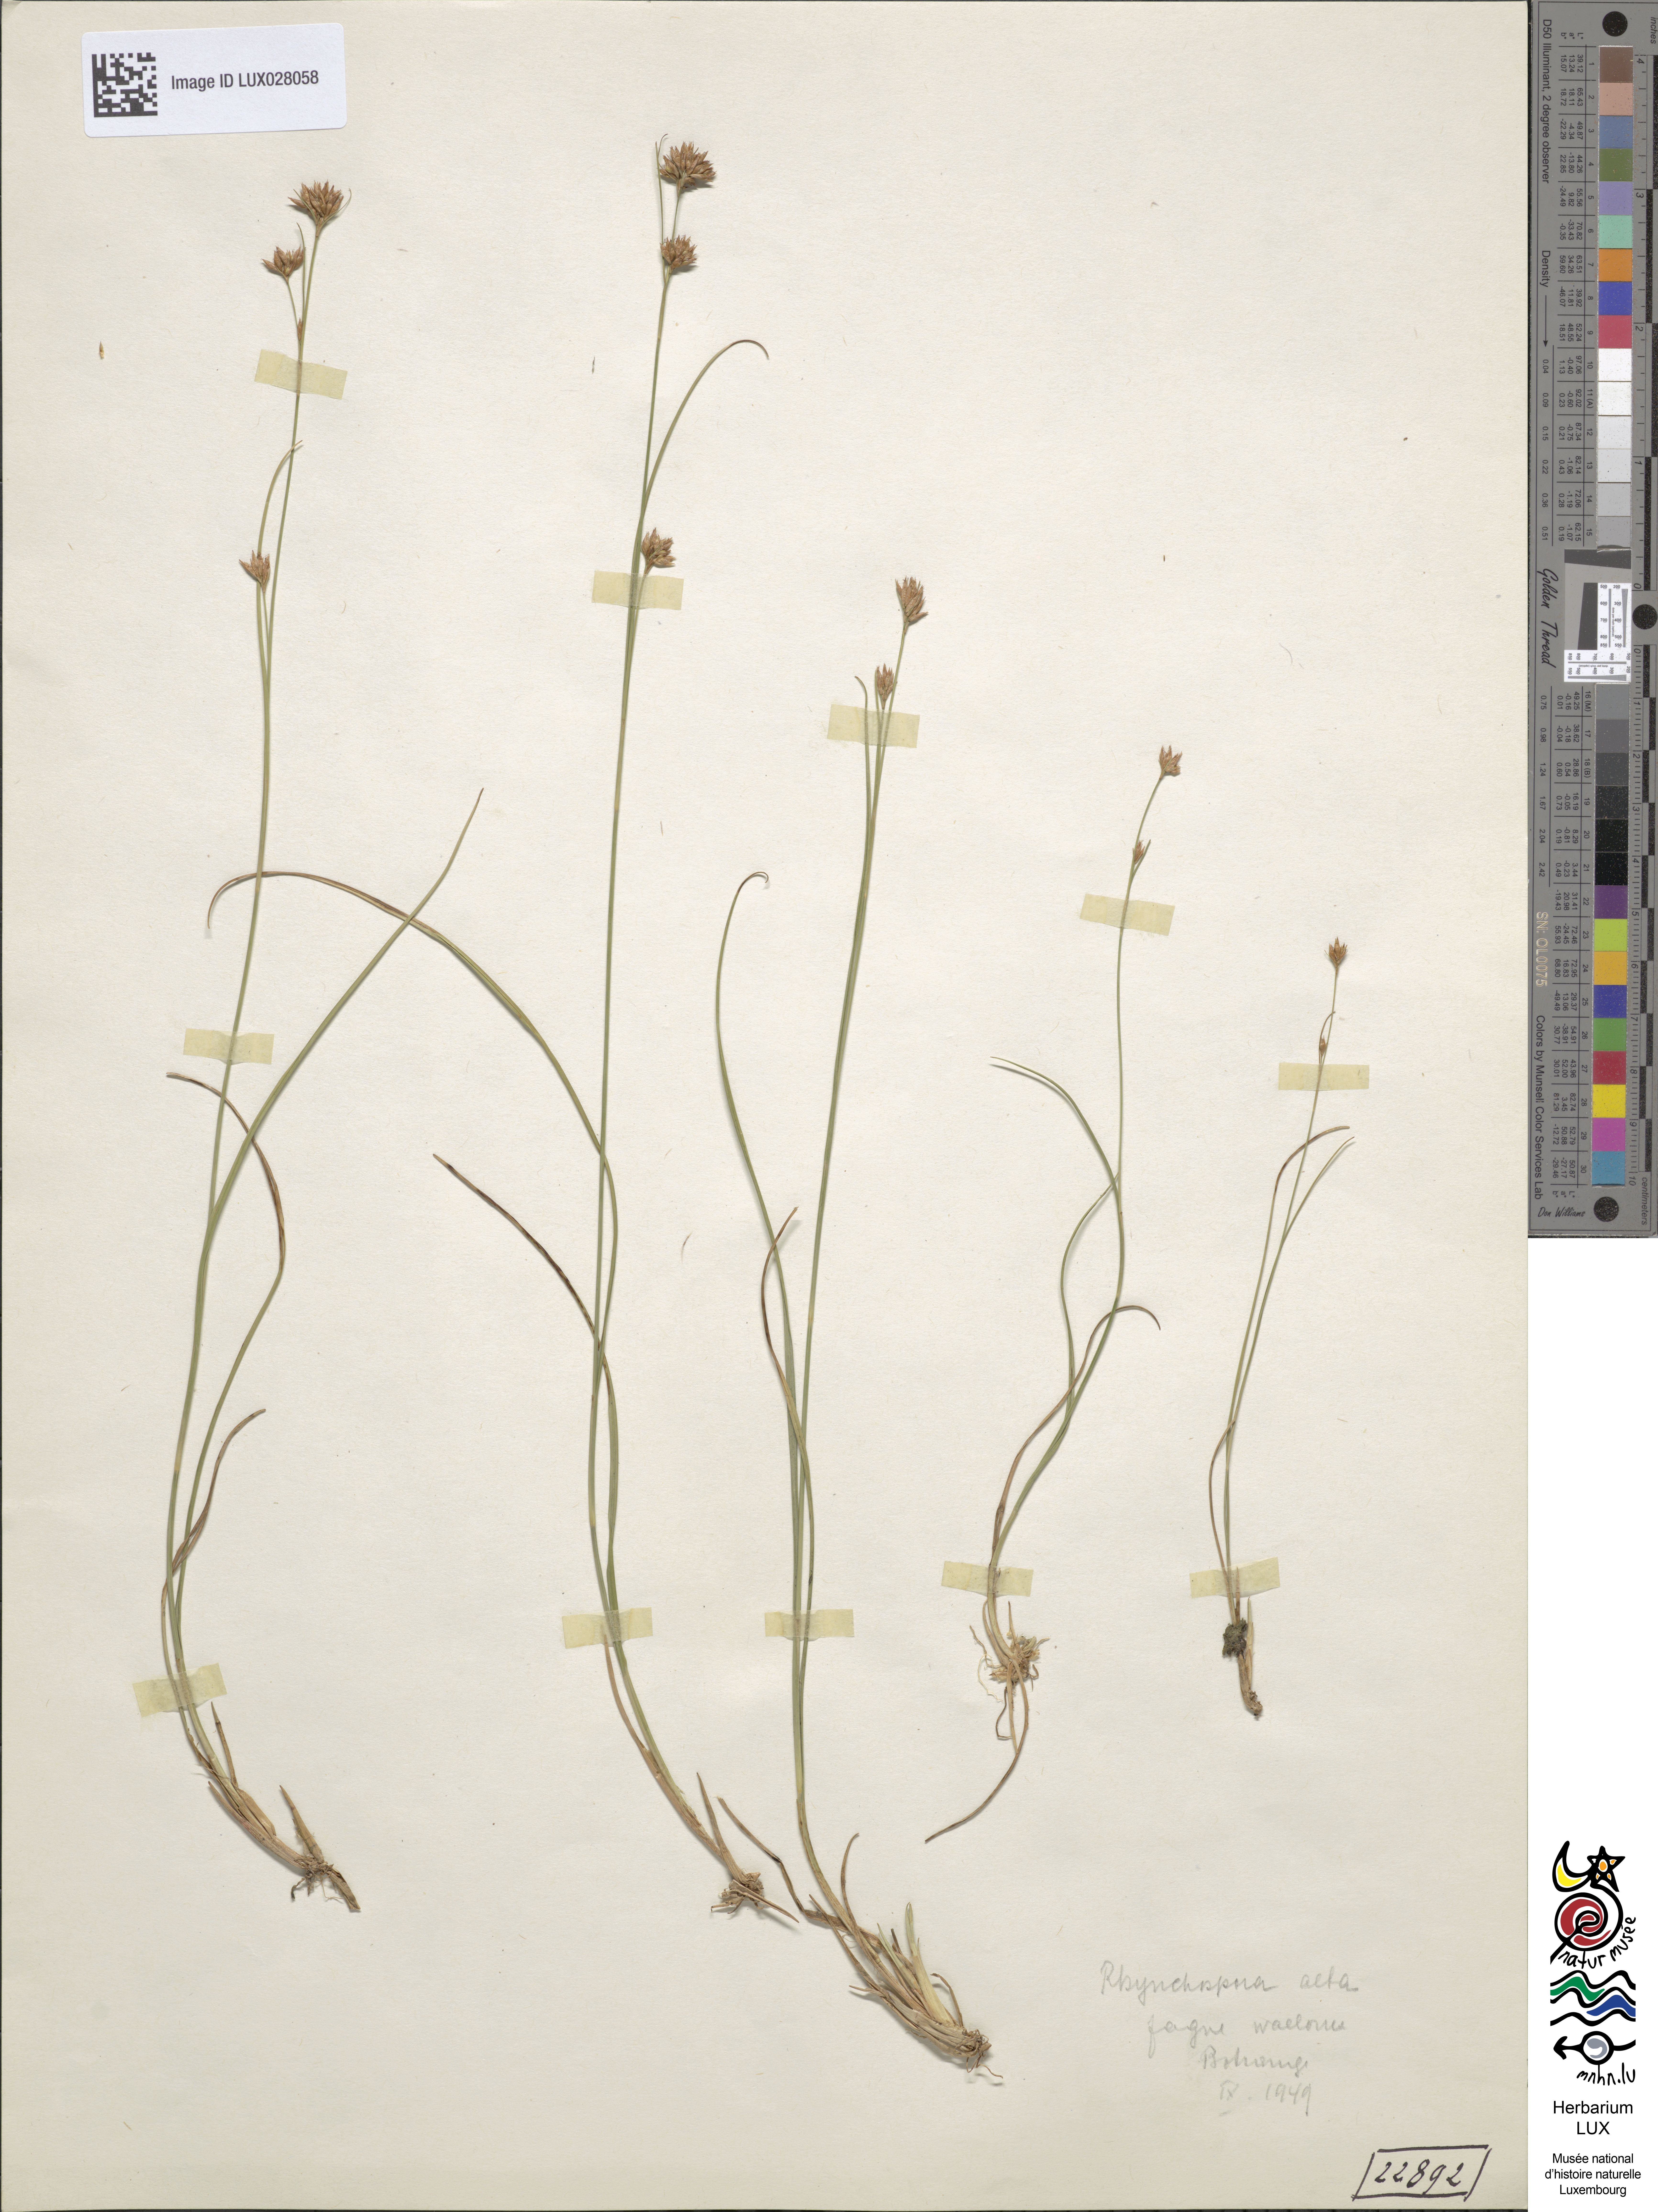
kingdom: Plantae
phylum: Tracheophyta
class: Liliopsida
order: Poales
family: Cyperaceae
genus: Rhynchospora
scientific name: Rhynchospora alba
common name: White beak-sedge
